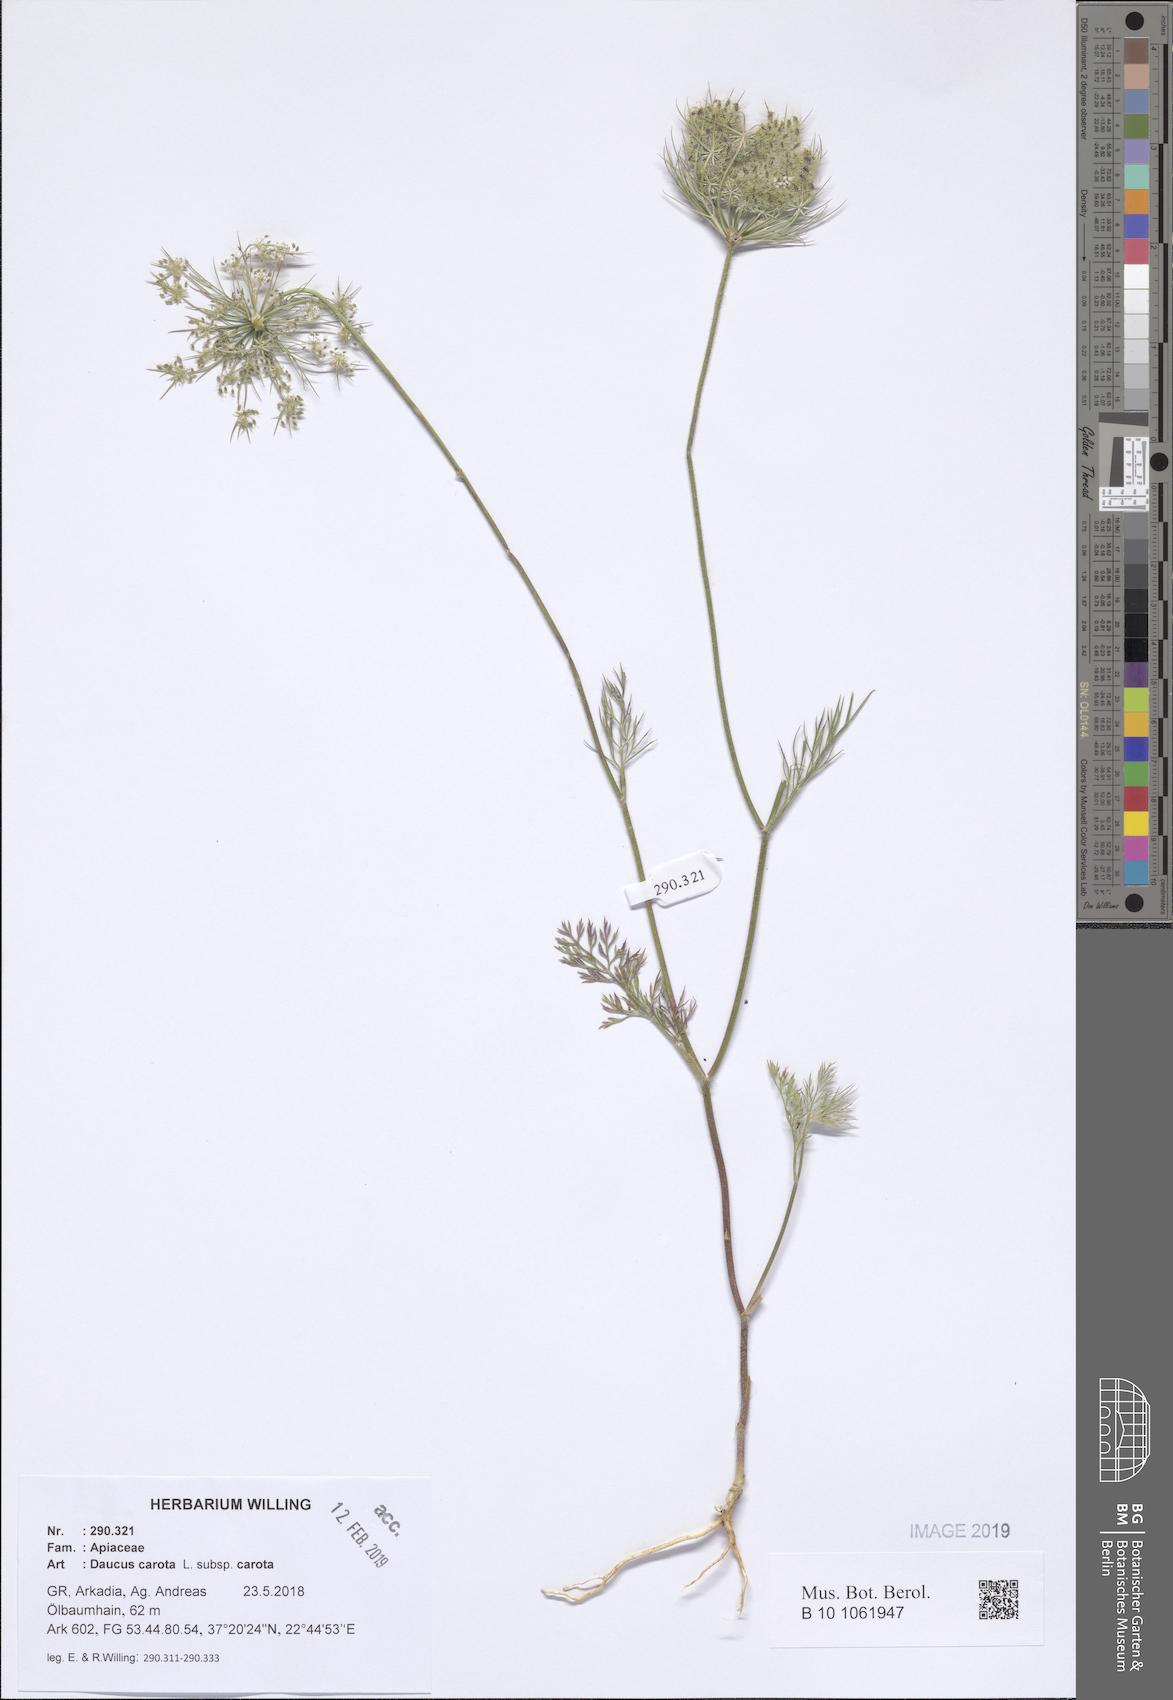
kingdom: Plantae
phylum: Tracheophyta
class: Magnoliopsida
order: Apiales
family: Apiaceae
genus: Daucus
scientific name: Daucus carota
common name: Wild carrot
